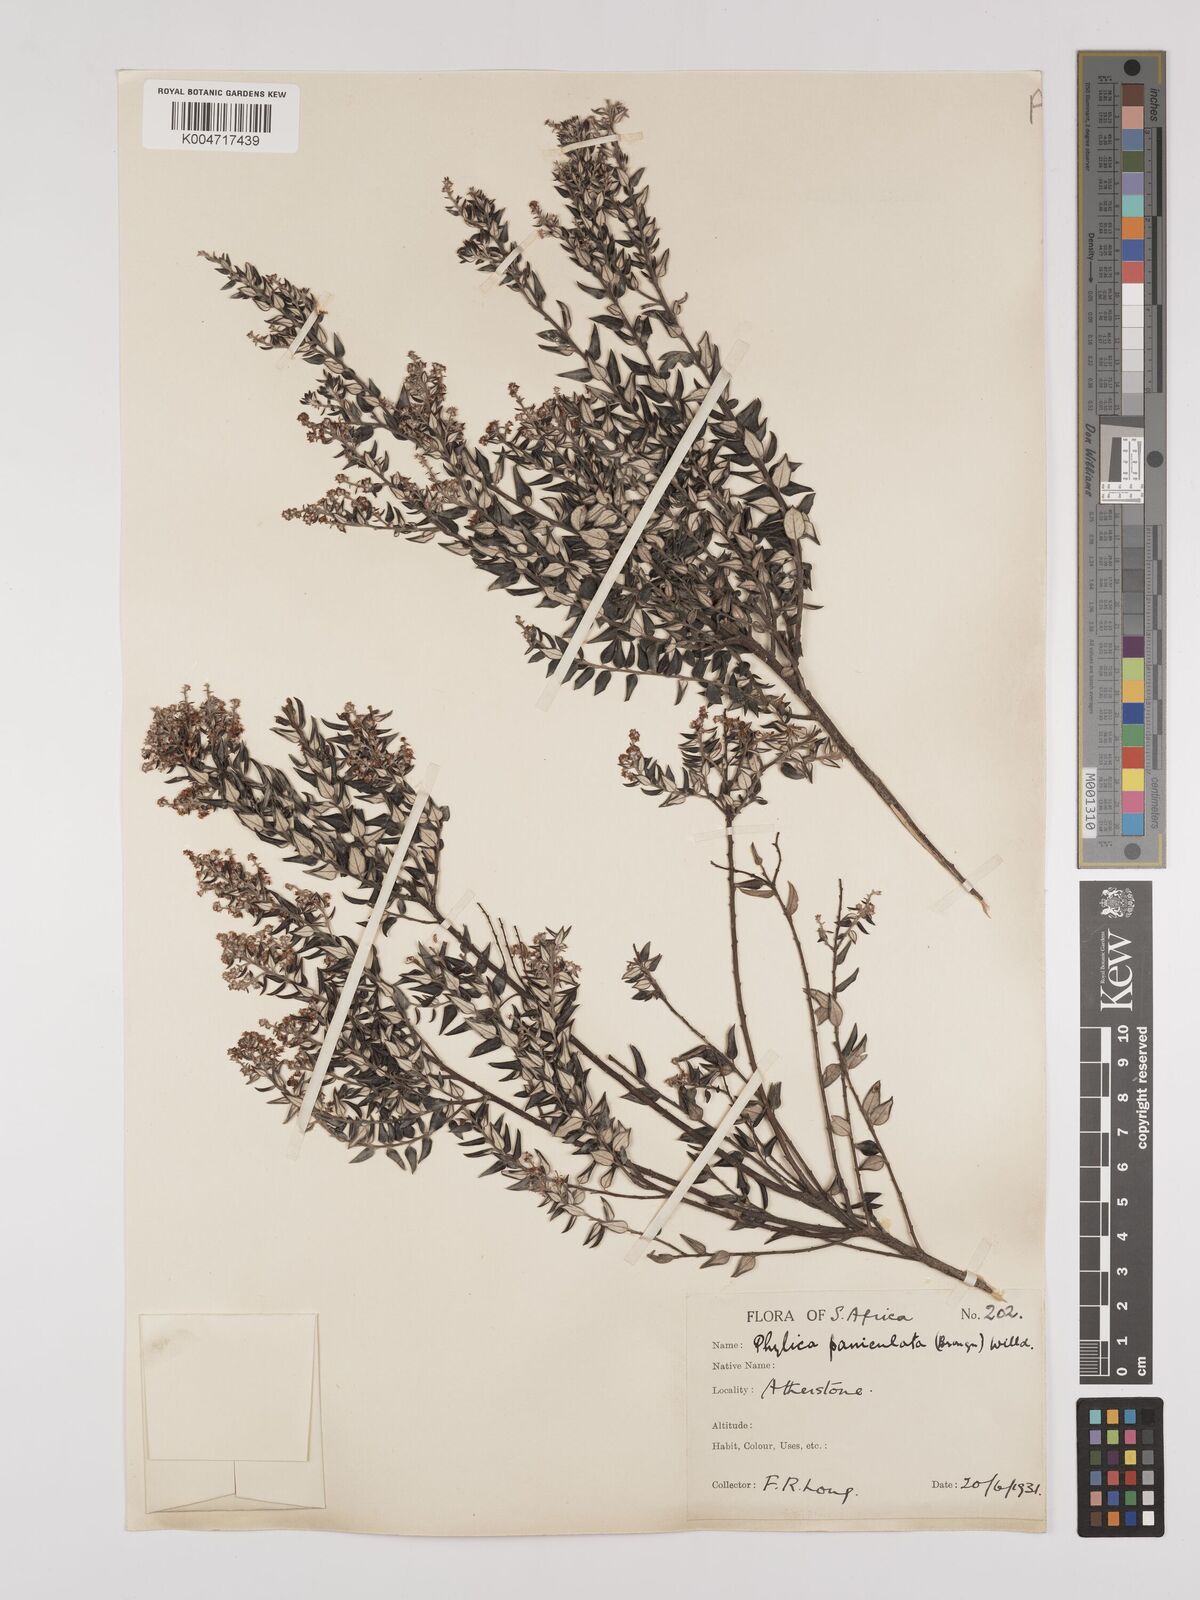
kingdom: Plantae
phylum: Tracheophyta
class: Magnoliopsida
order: Rosales
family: Rhamnaceae
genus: Phylica
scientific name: Phylica paniculata
